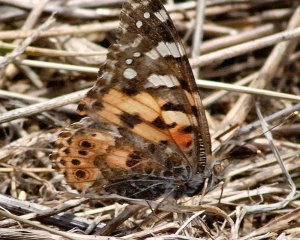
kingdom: Animalia
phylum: Arthropoda
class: Insecta
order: Lepidoptera
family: Nymphalidae
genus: Vanessa
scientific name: Vanessa cardui
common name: Painted Lady
